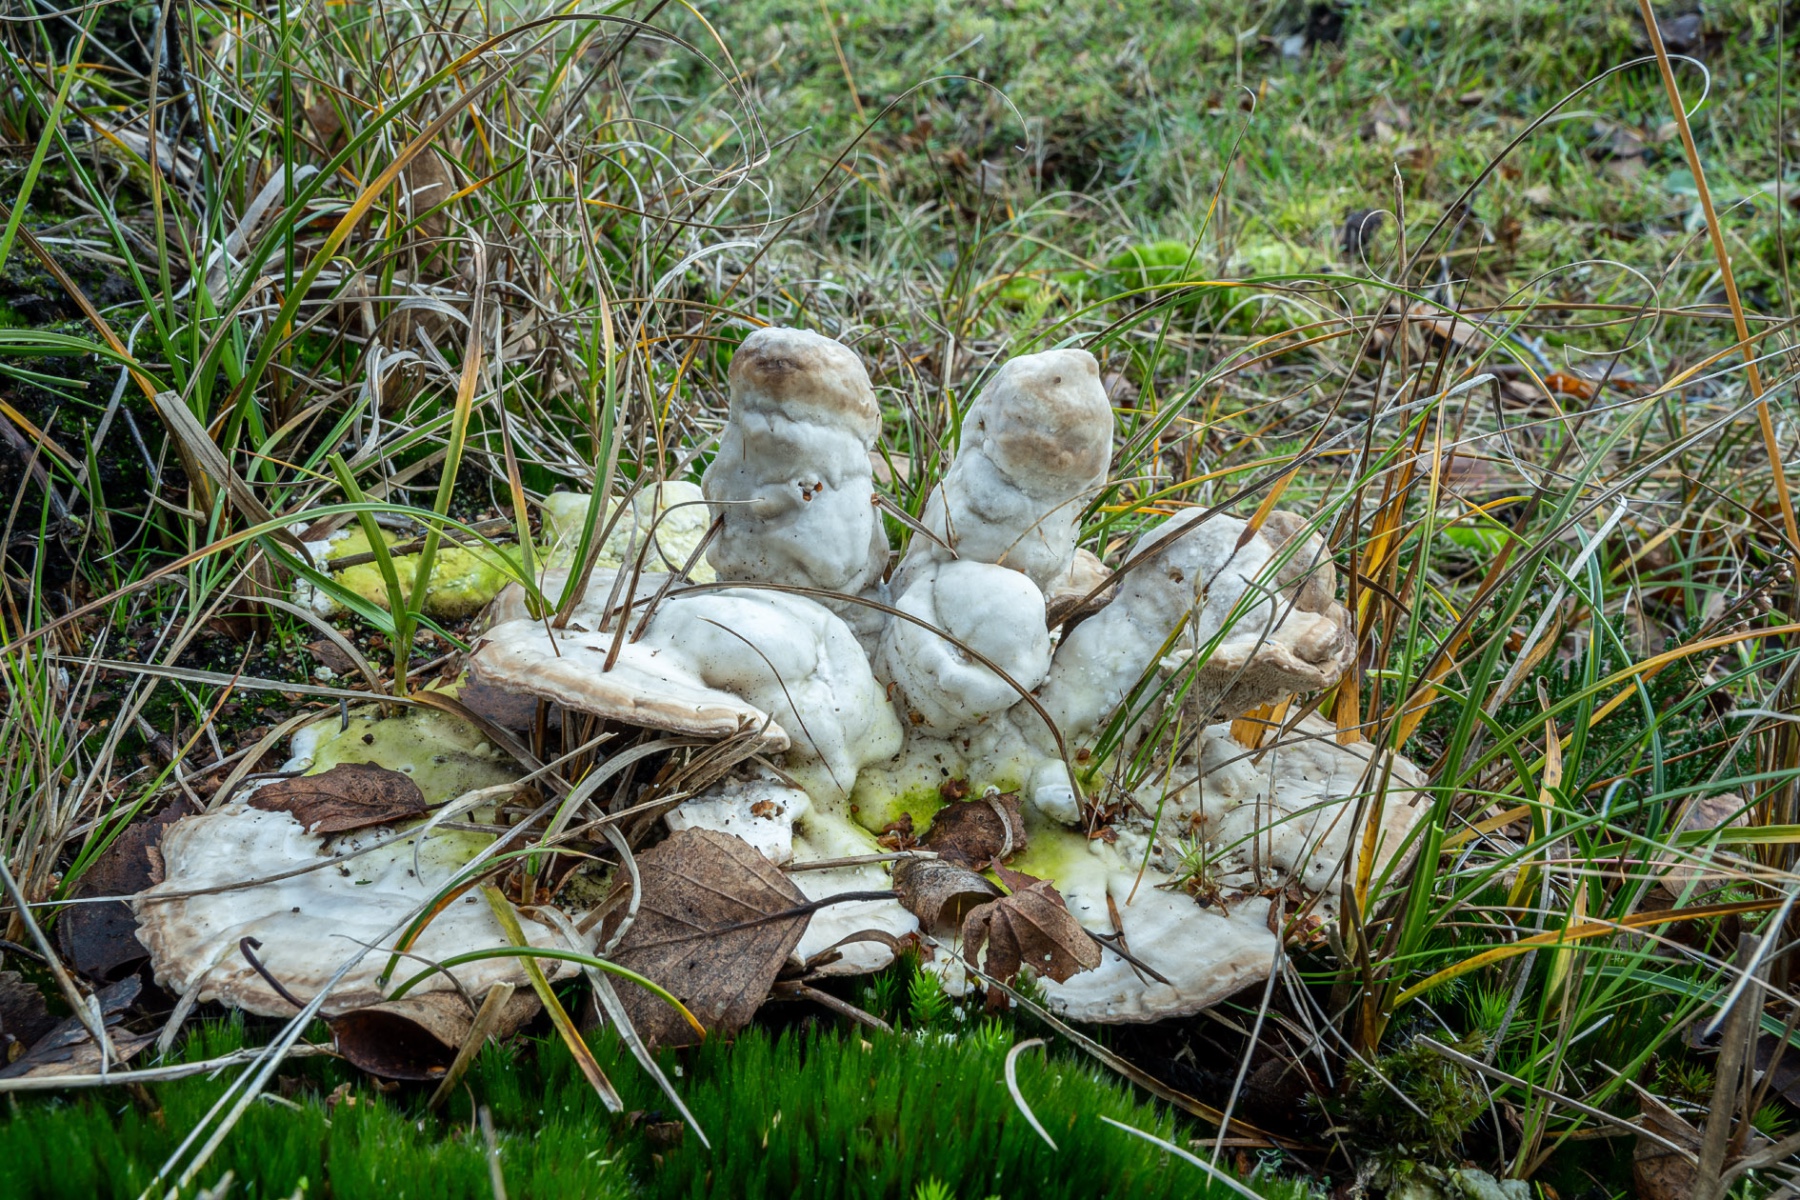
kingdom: Fungi
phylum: Basidiomycota
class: Agaricomycetes
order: Polyporales
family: Polyporaceae
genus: Trametes
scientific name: Trametes gibbosa
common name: puklet læderporesvamp
